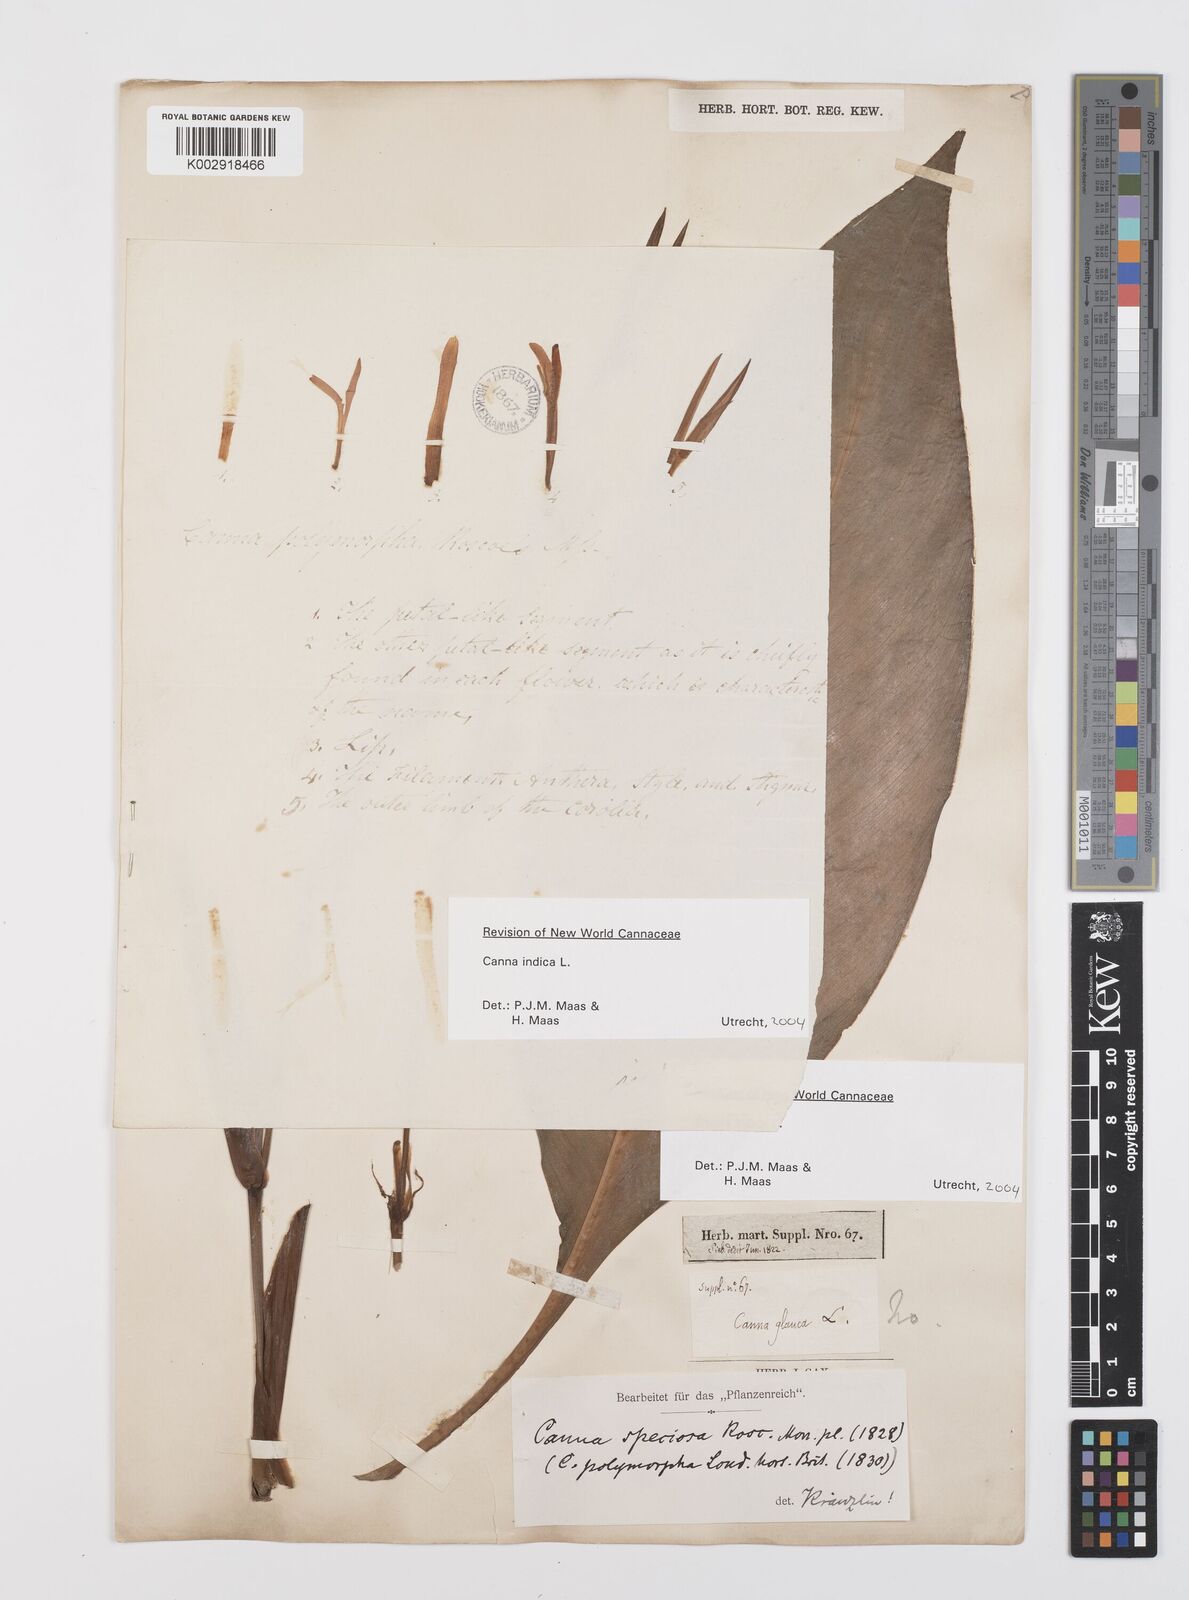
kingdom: Plantae
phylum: Tracheophyta
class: Liliopsida
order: Zingiberales
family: Cannaceae
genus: Canna
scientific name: Canna indica
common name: Indian shot
